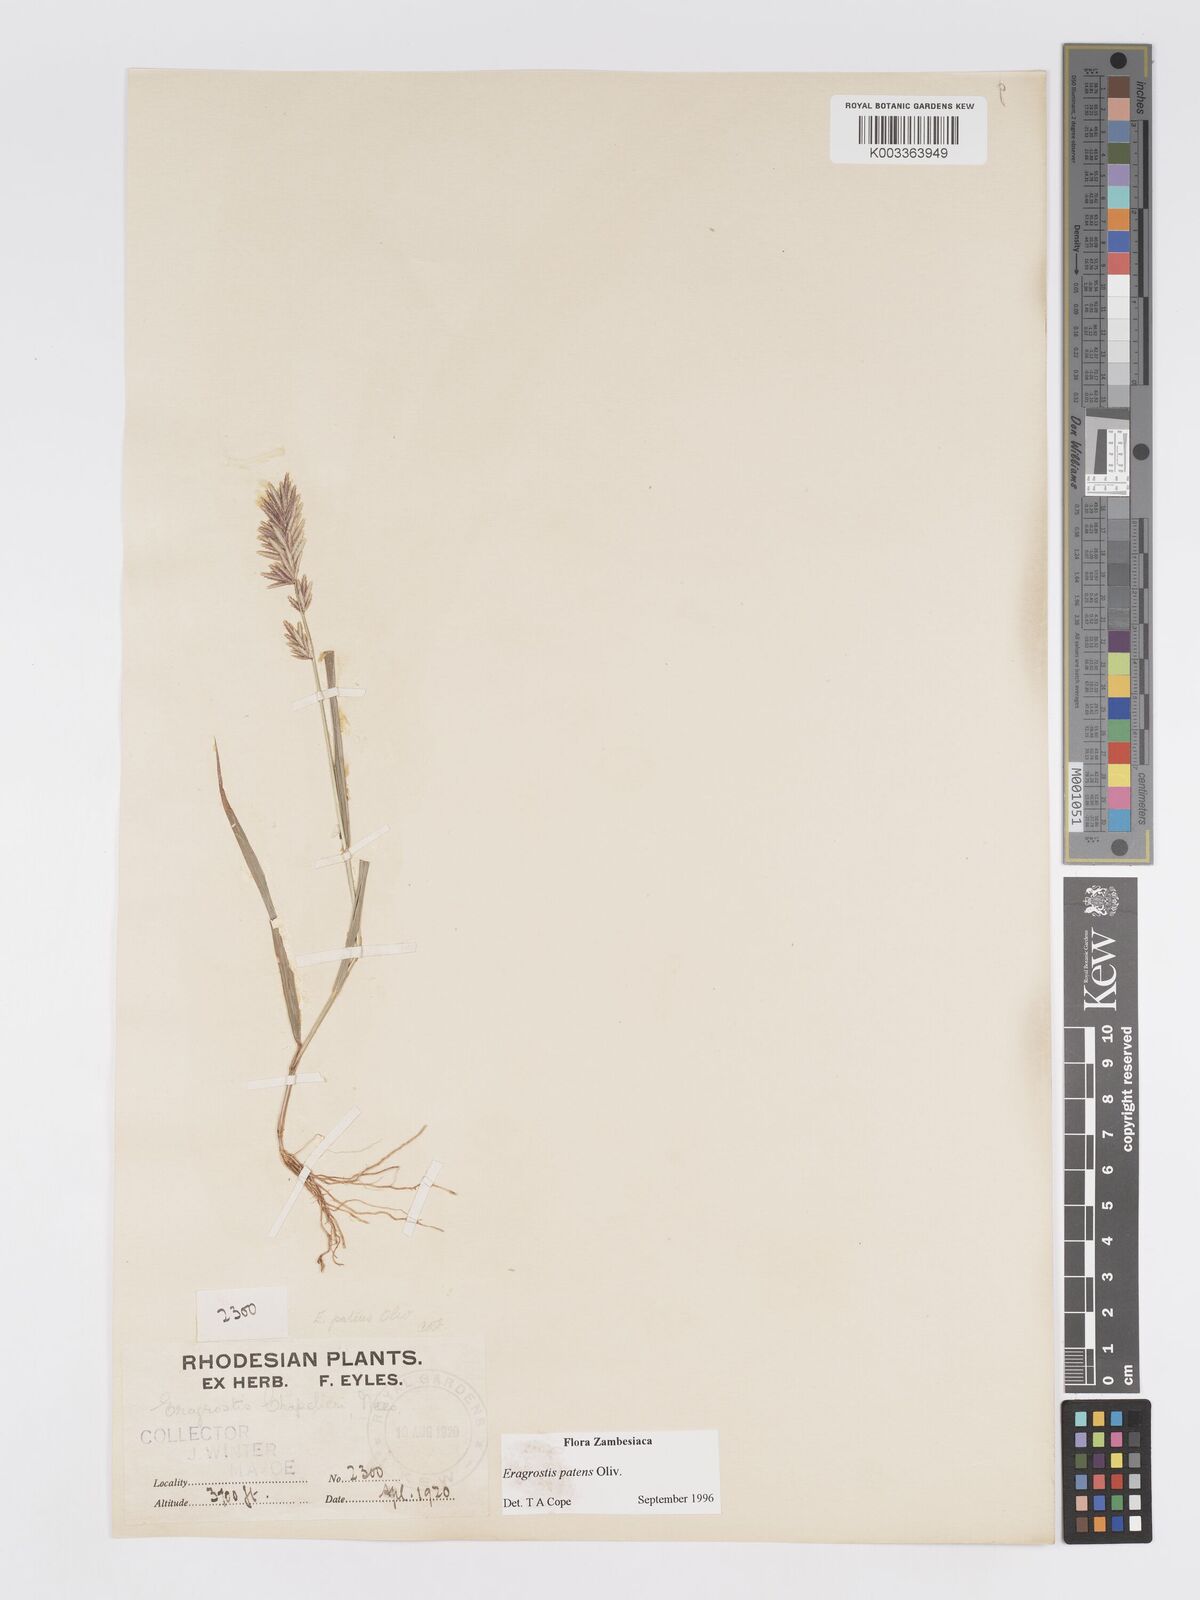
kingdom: Plantae
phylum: Tracheophyta
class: Liliopsida
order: Poales
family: Poaceae
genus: Eragrostis
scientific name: Eragrostis patens
